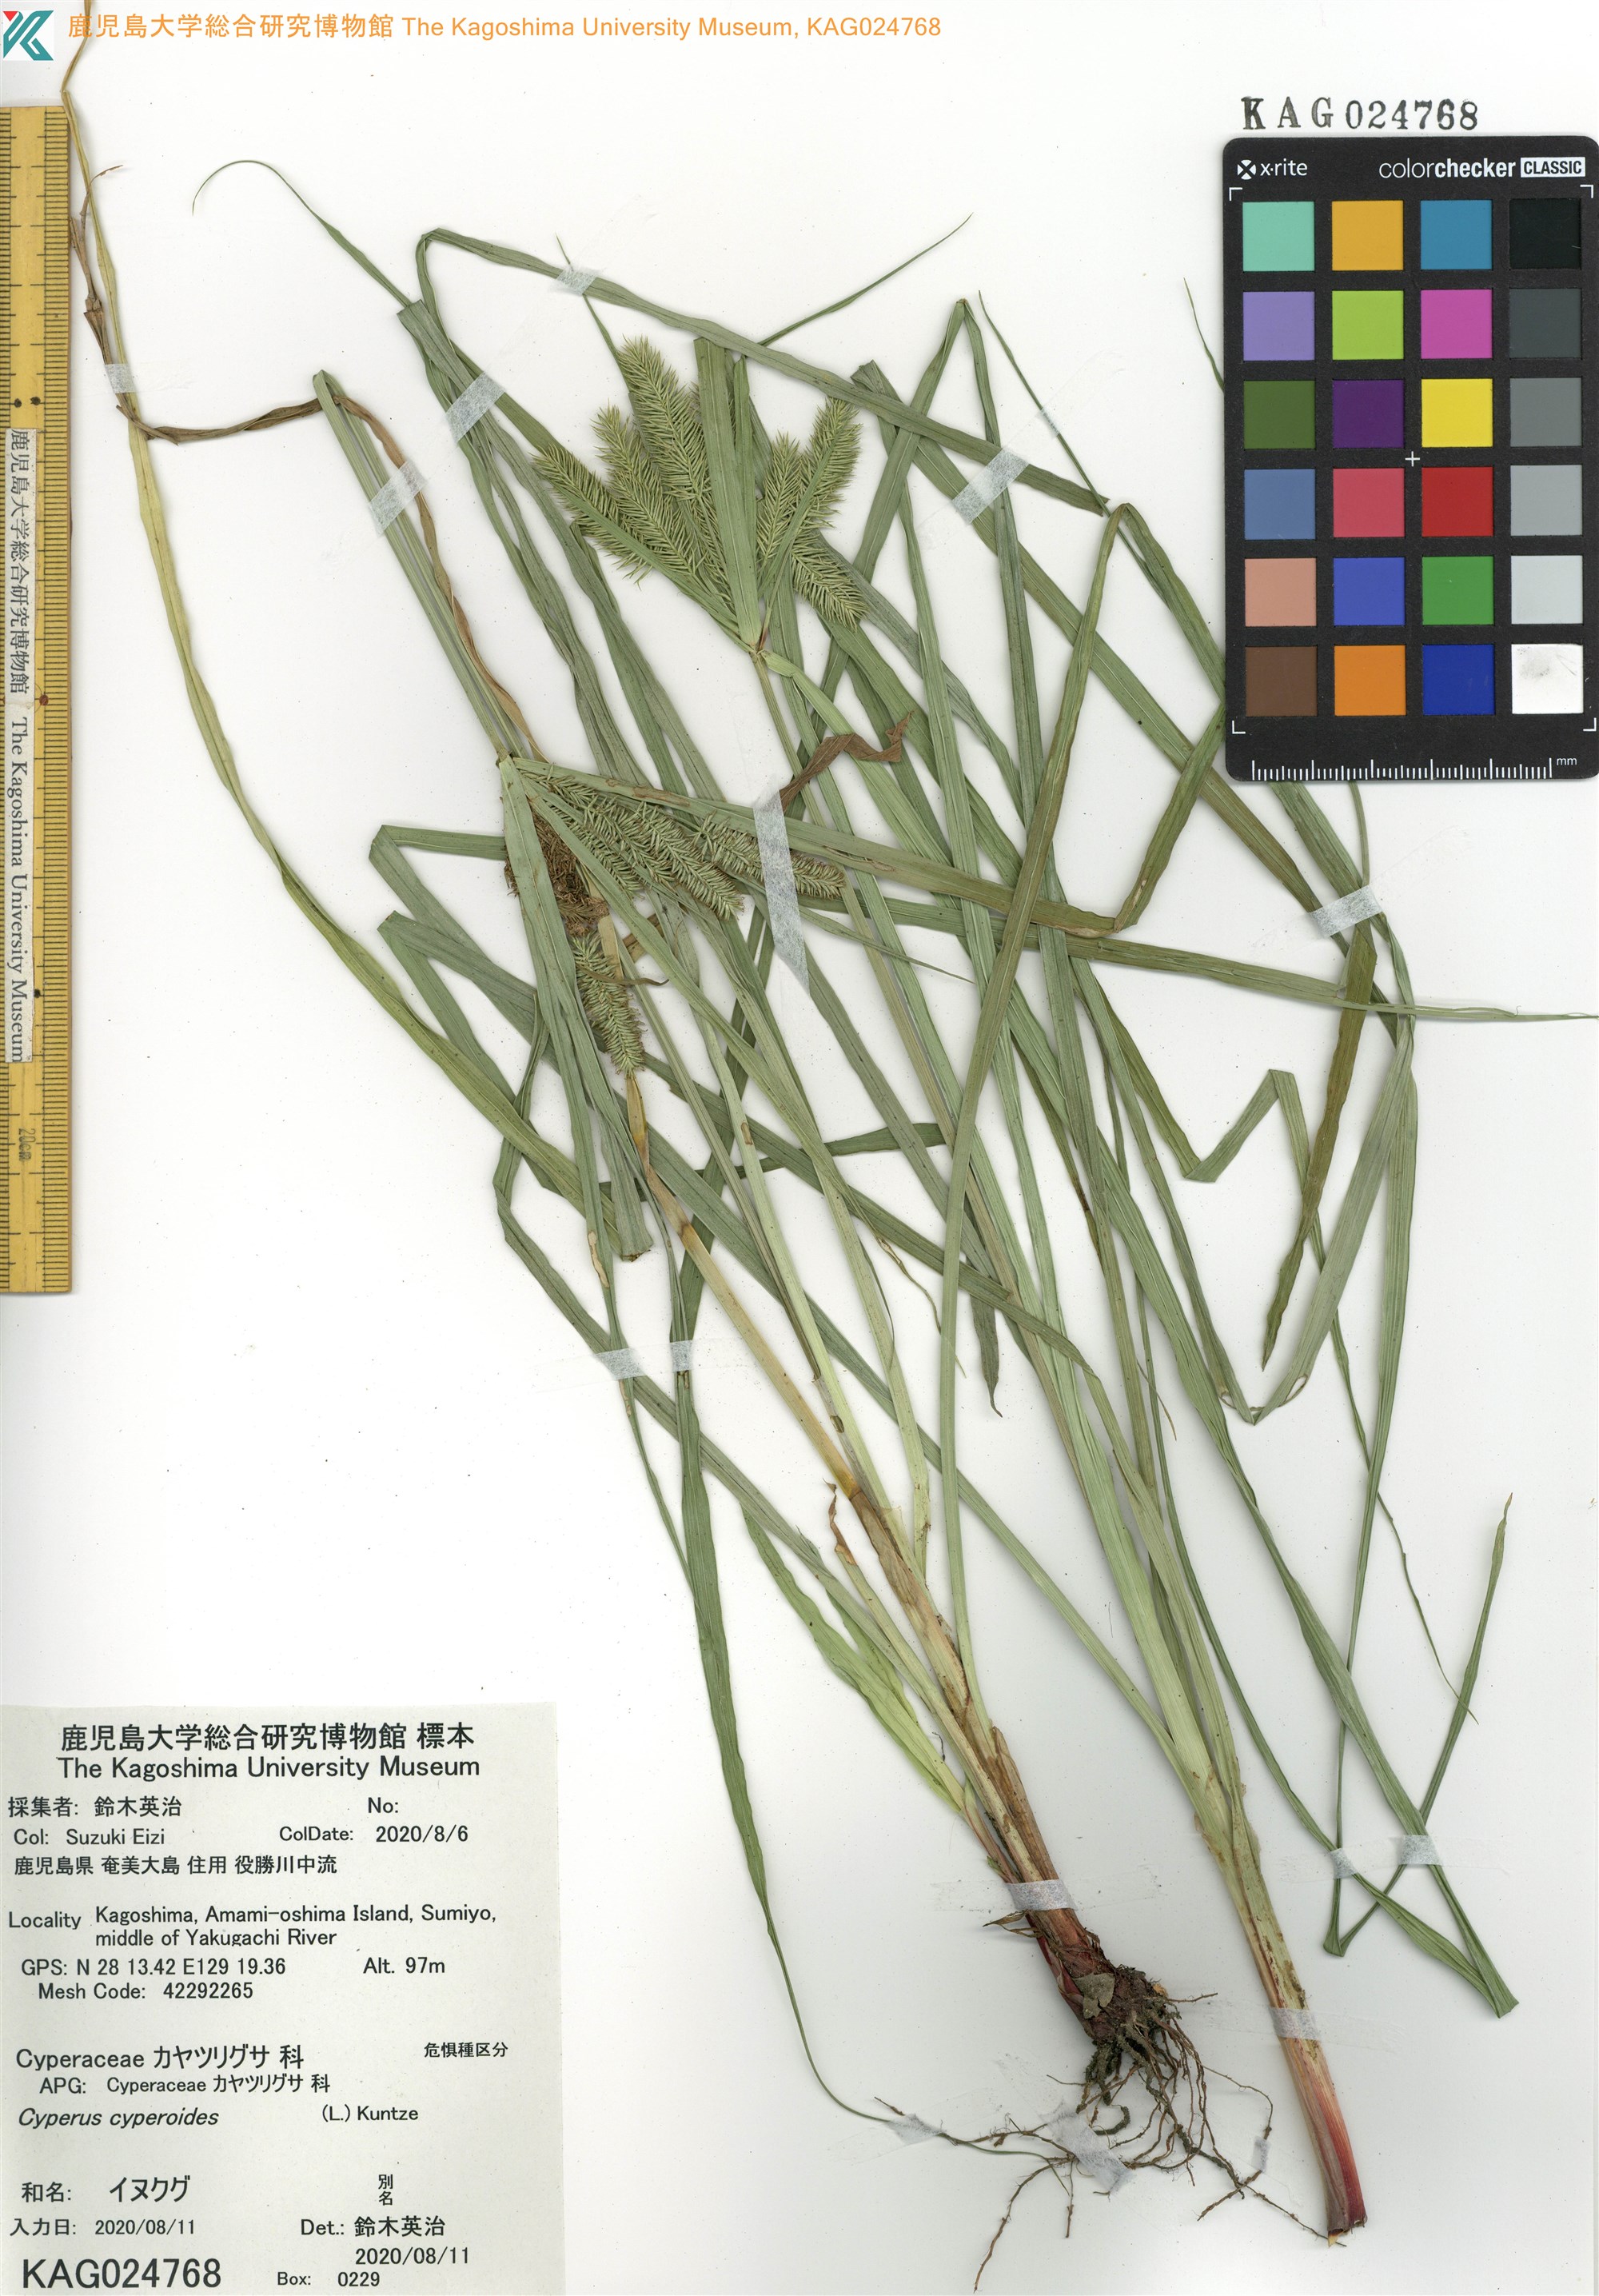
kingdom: Plantae
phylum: Tracheophyta
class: Liliopsida
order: Poales
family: Cyperaceae
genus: Cyperus
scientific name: Cyperus pilosus
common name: Fuzzy flatsedge
